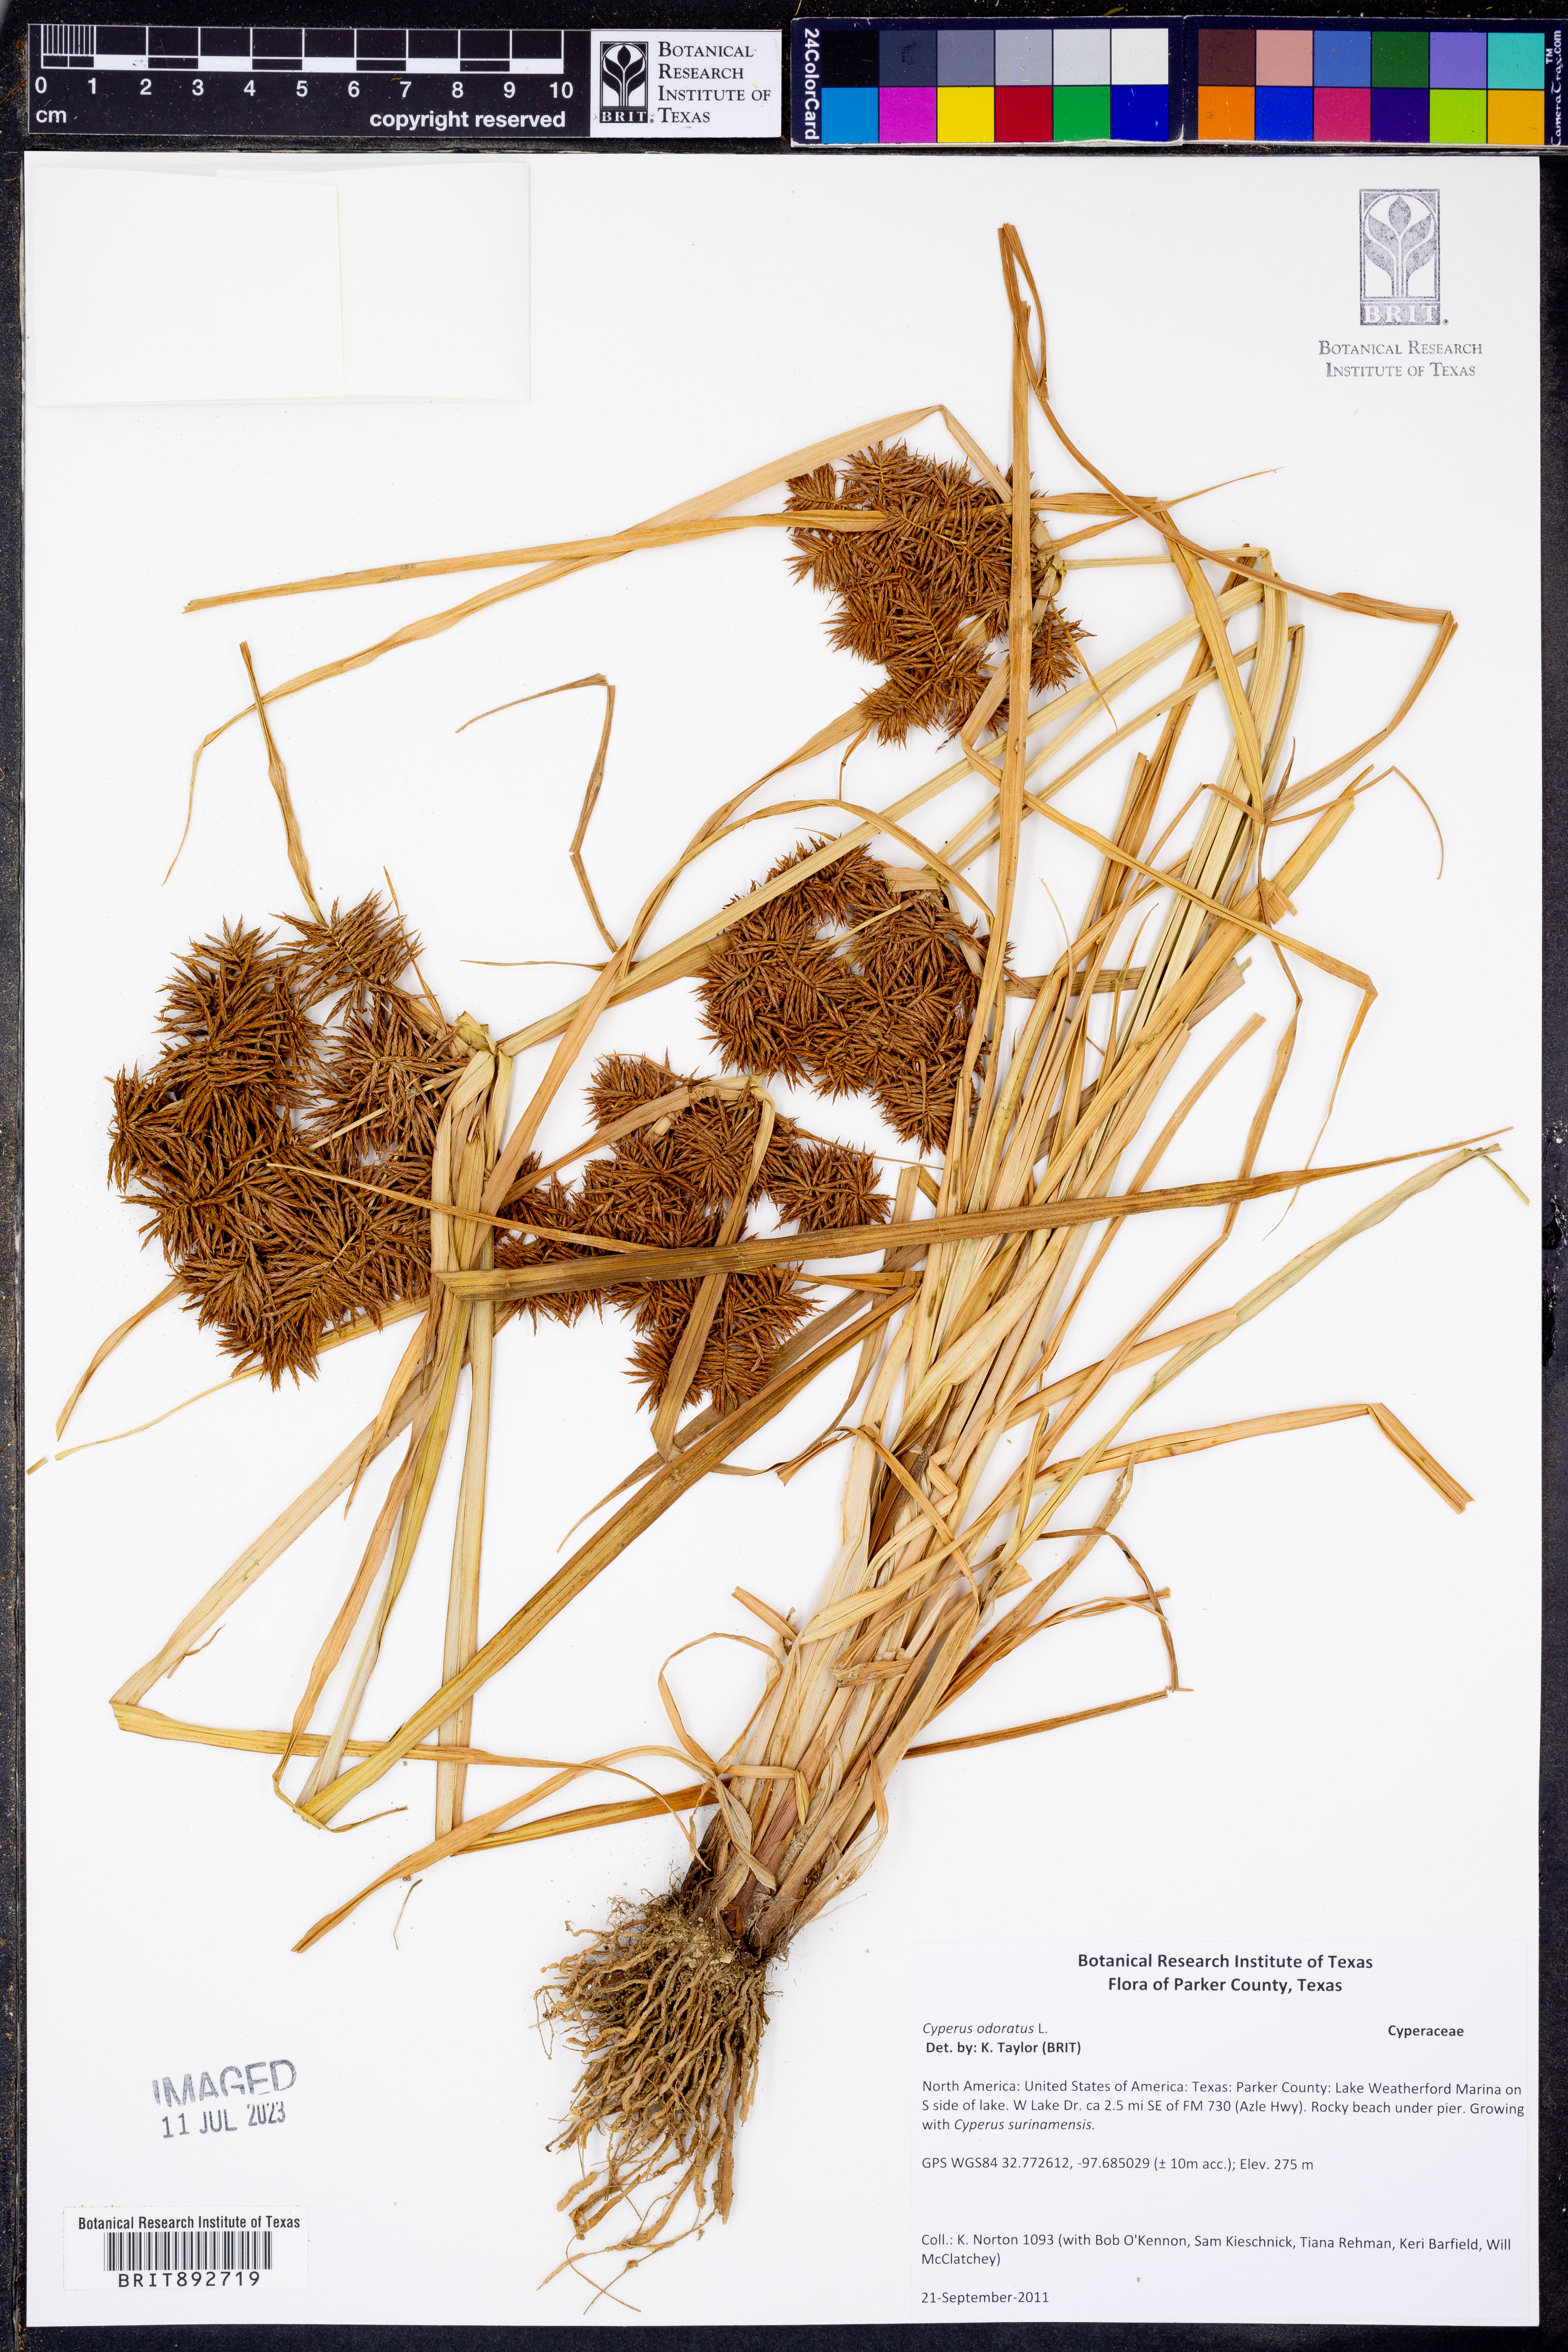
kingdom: Plantae
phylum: Tracheophyta
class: Liliopsida
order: Poales
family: Cyperaceae
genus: Cyperus
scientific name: Cyperus odoratus
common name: Fragrant flatsedge
